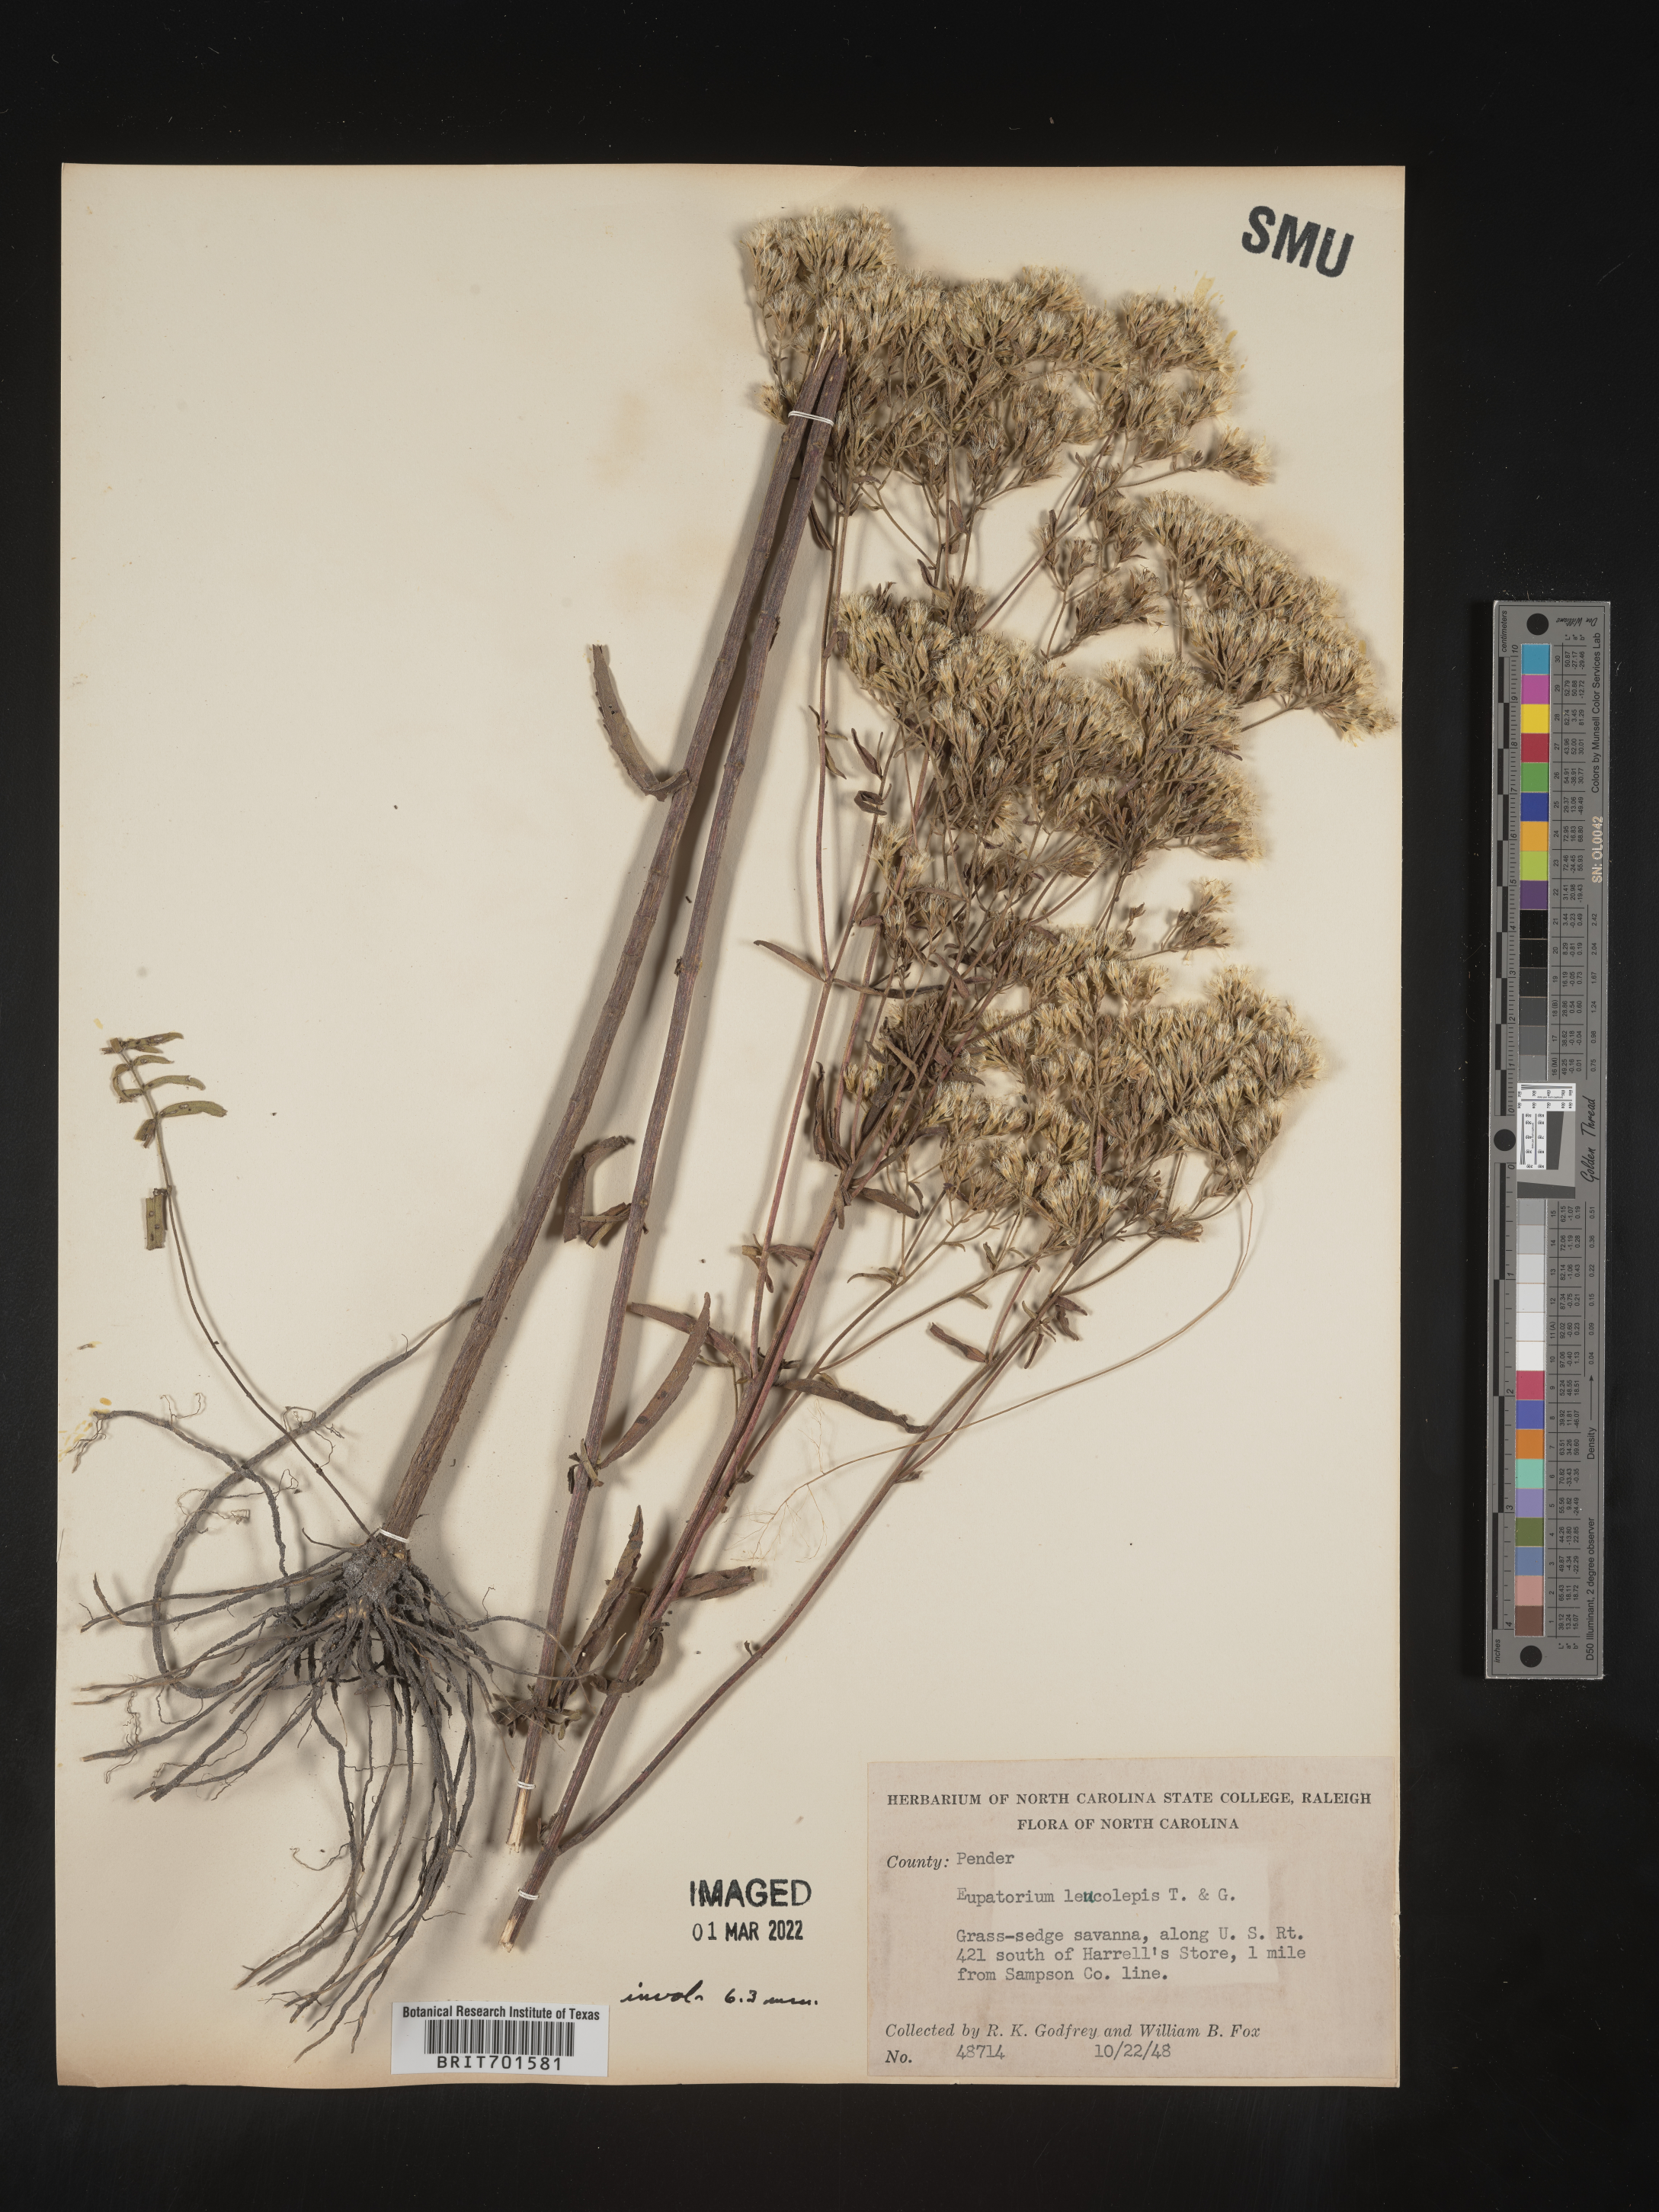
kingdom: Plantae
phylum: Tracheophyta
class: Magnoliopsida
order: Asterales
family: Asteraceae
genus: Eupatorium
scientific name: Eupatorium leucolepis
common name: Justiceweed
